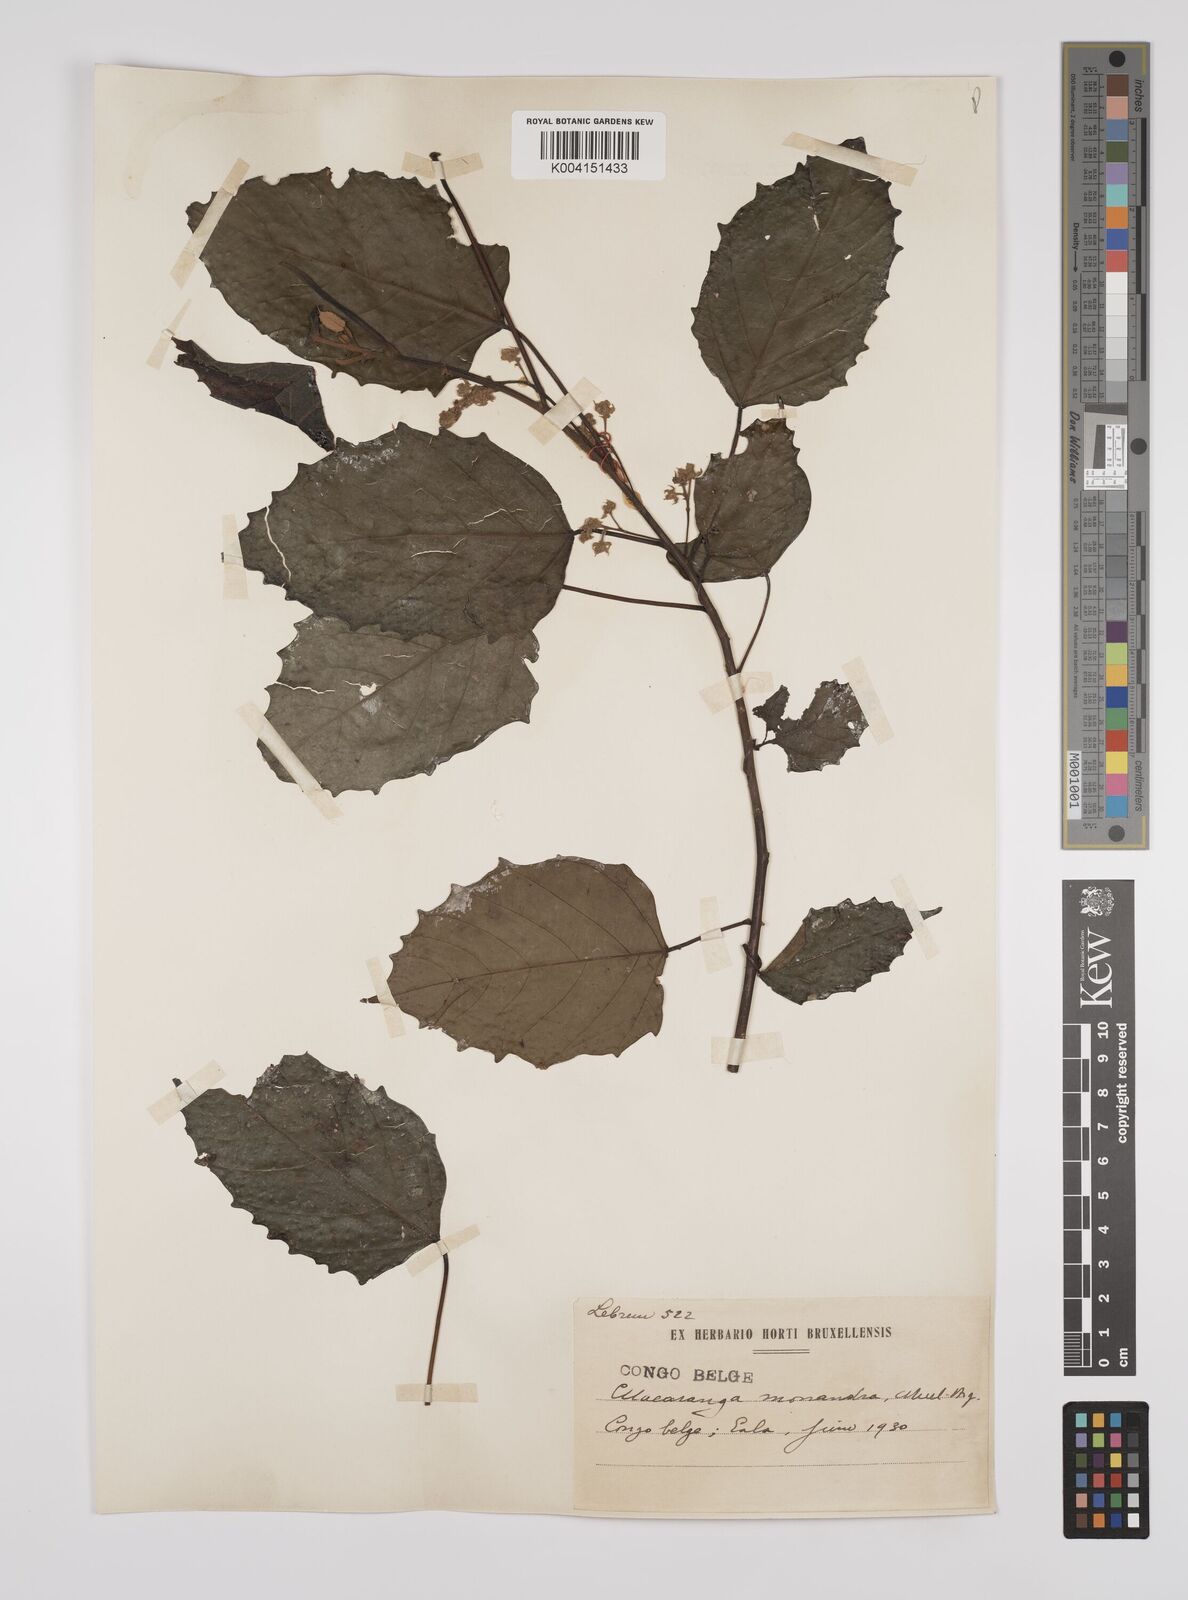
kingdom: Plantae
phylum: Tracheophyta
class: Magnoliopsida
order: Malpighiales
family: Euphorbiaceae
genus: Macaranga
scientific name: Macaranga monandra
